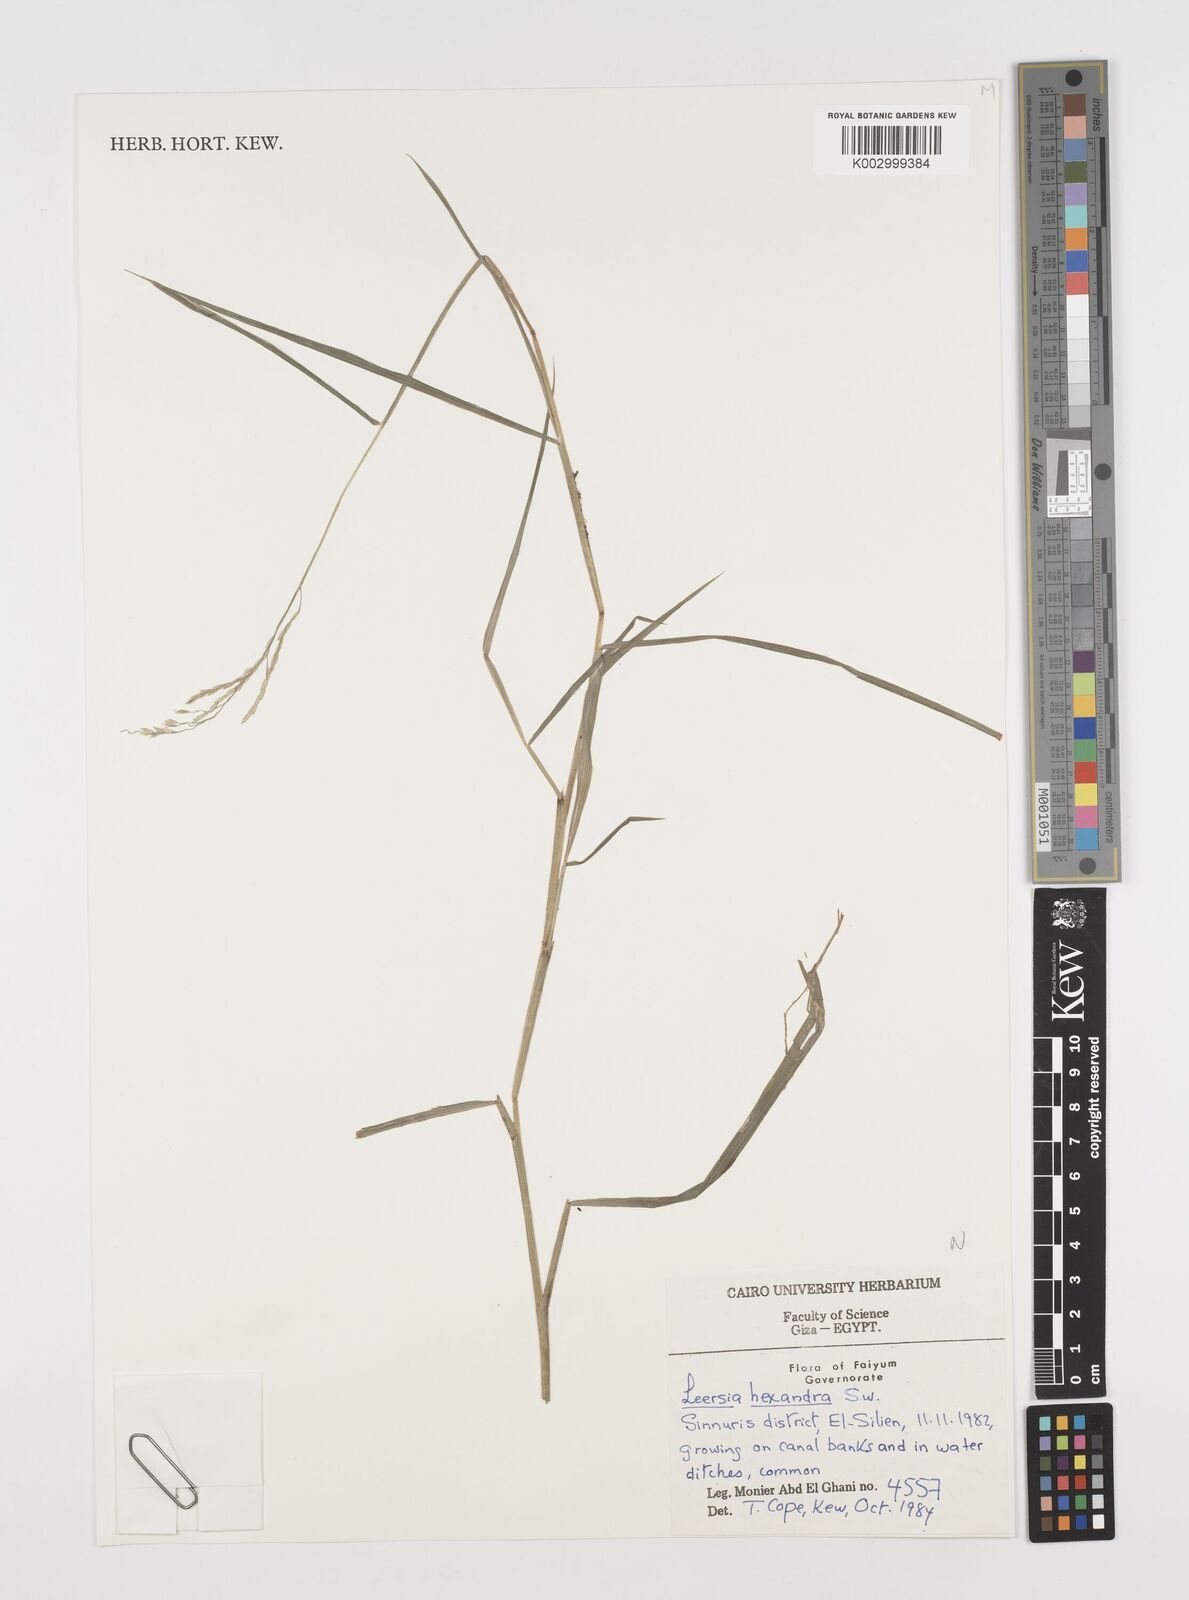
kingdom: Plantae
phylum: Tracheophyta
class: Liliopsida
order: Poales
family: Poaceae
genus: Leersia
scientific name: Leersia hexandra
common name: Southern cut grass
